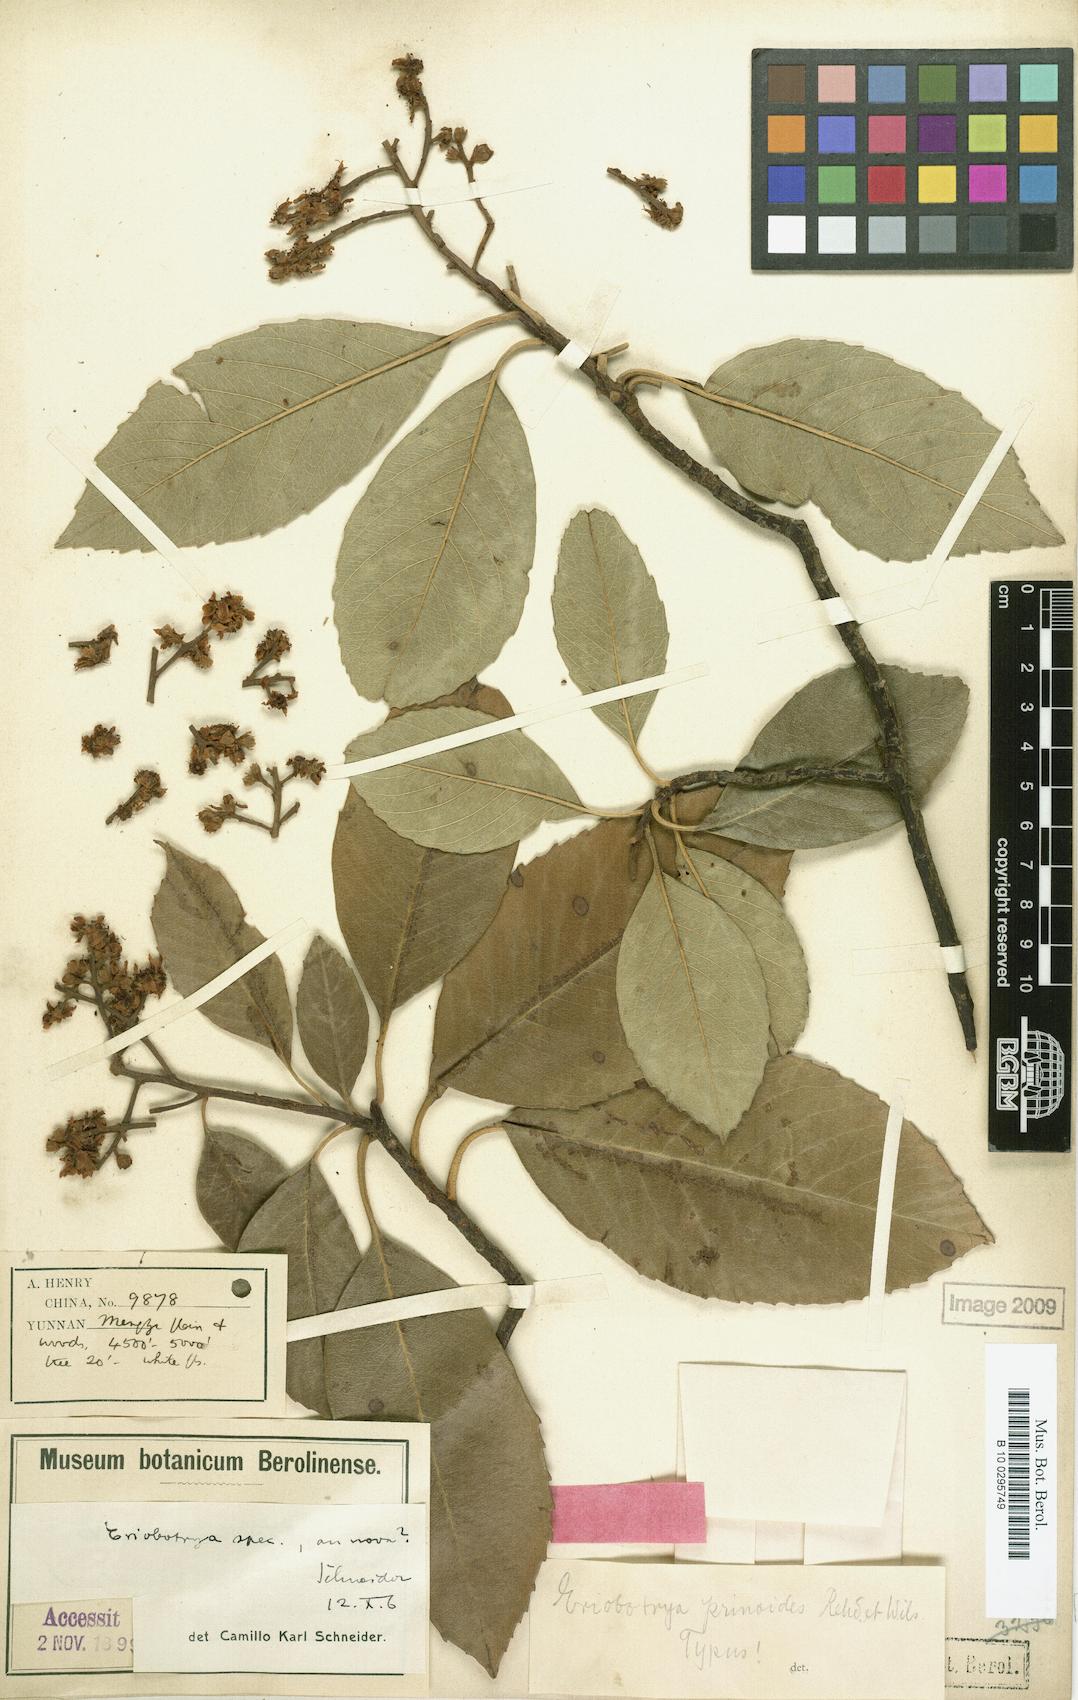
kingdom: Plantae
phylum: Tracheophyta
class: Magnoliopsida
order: Rosales
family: Rosaceae
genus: Rhaphiolepis
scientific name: Rhaphiolepis prinoides
